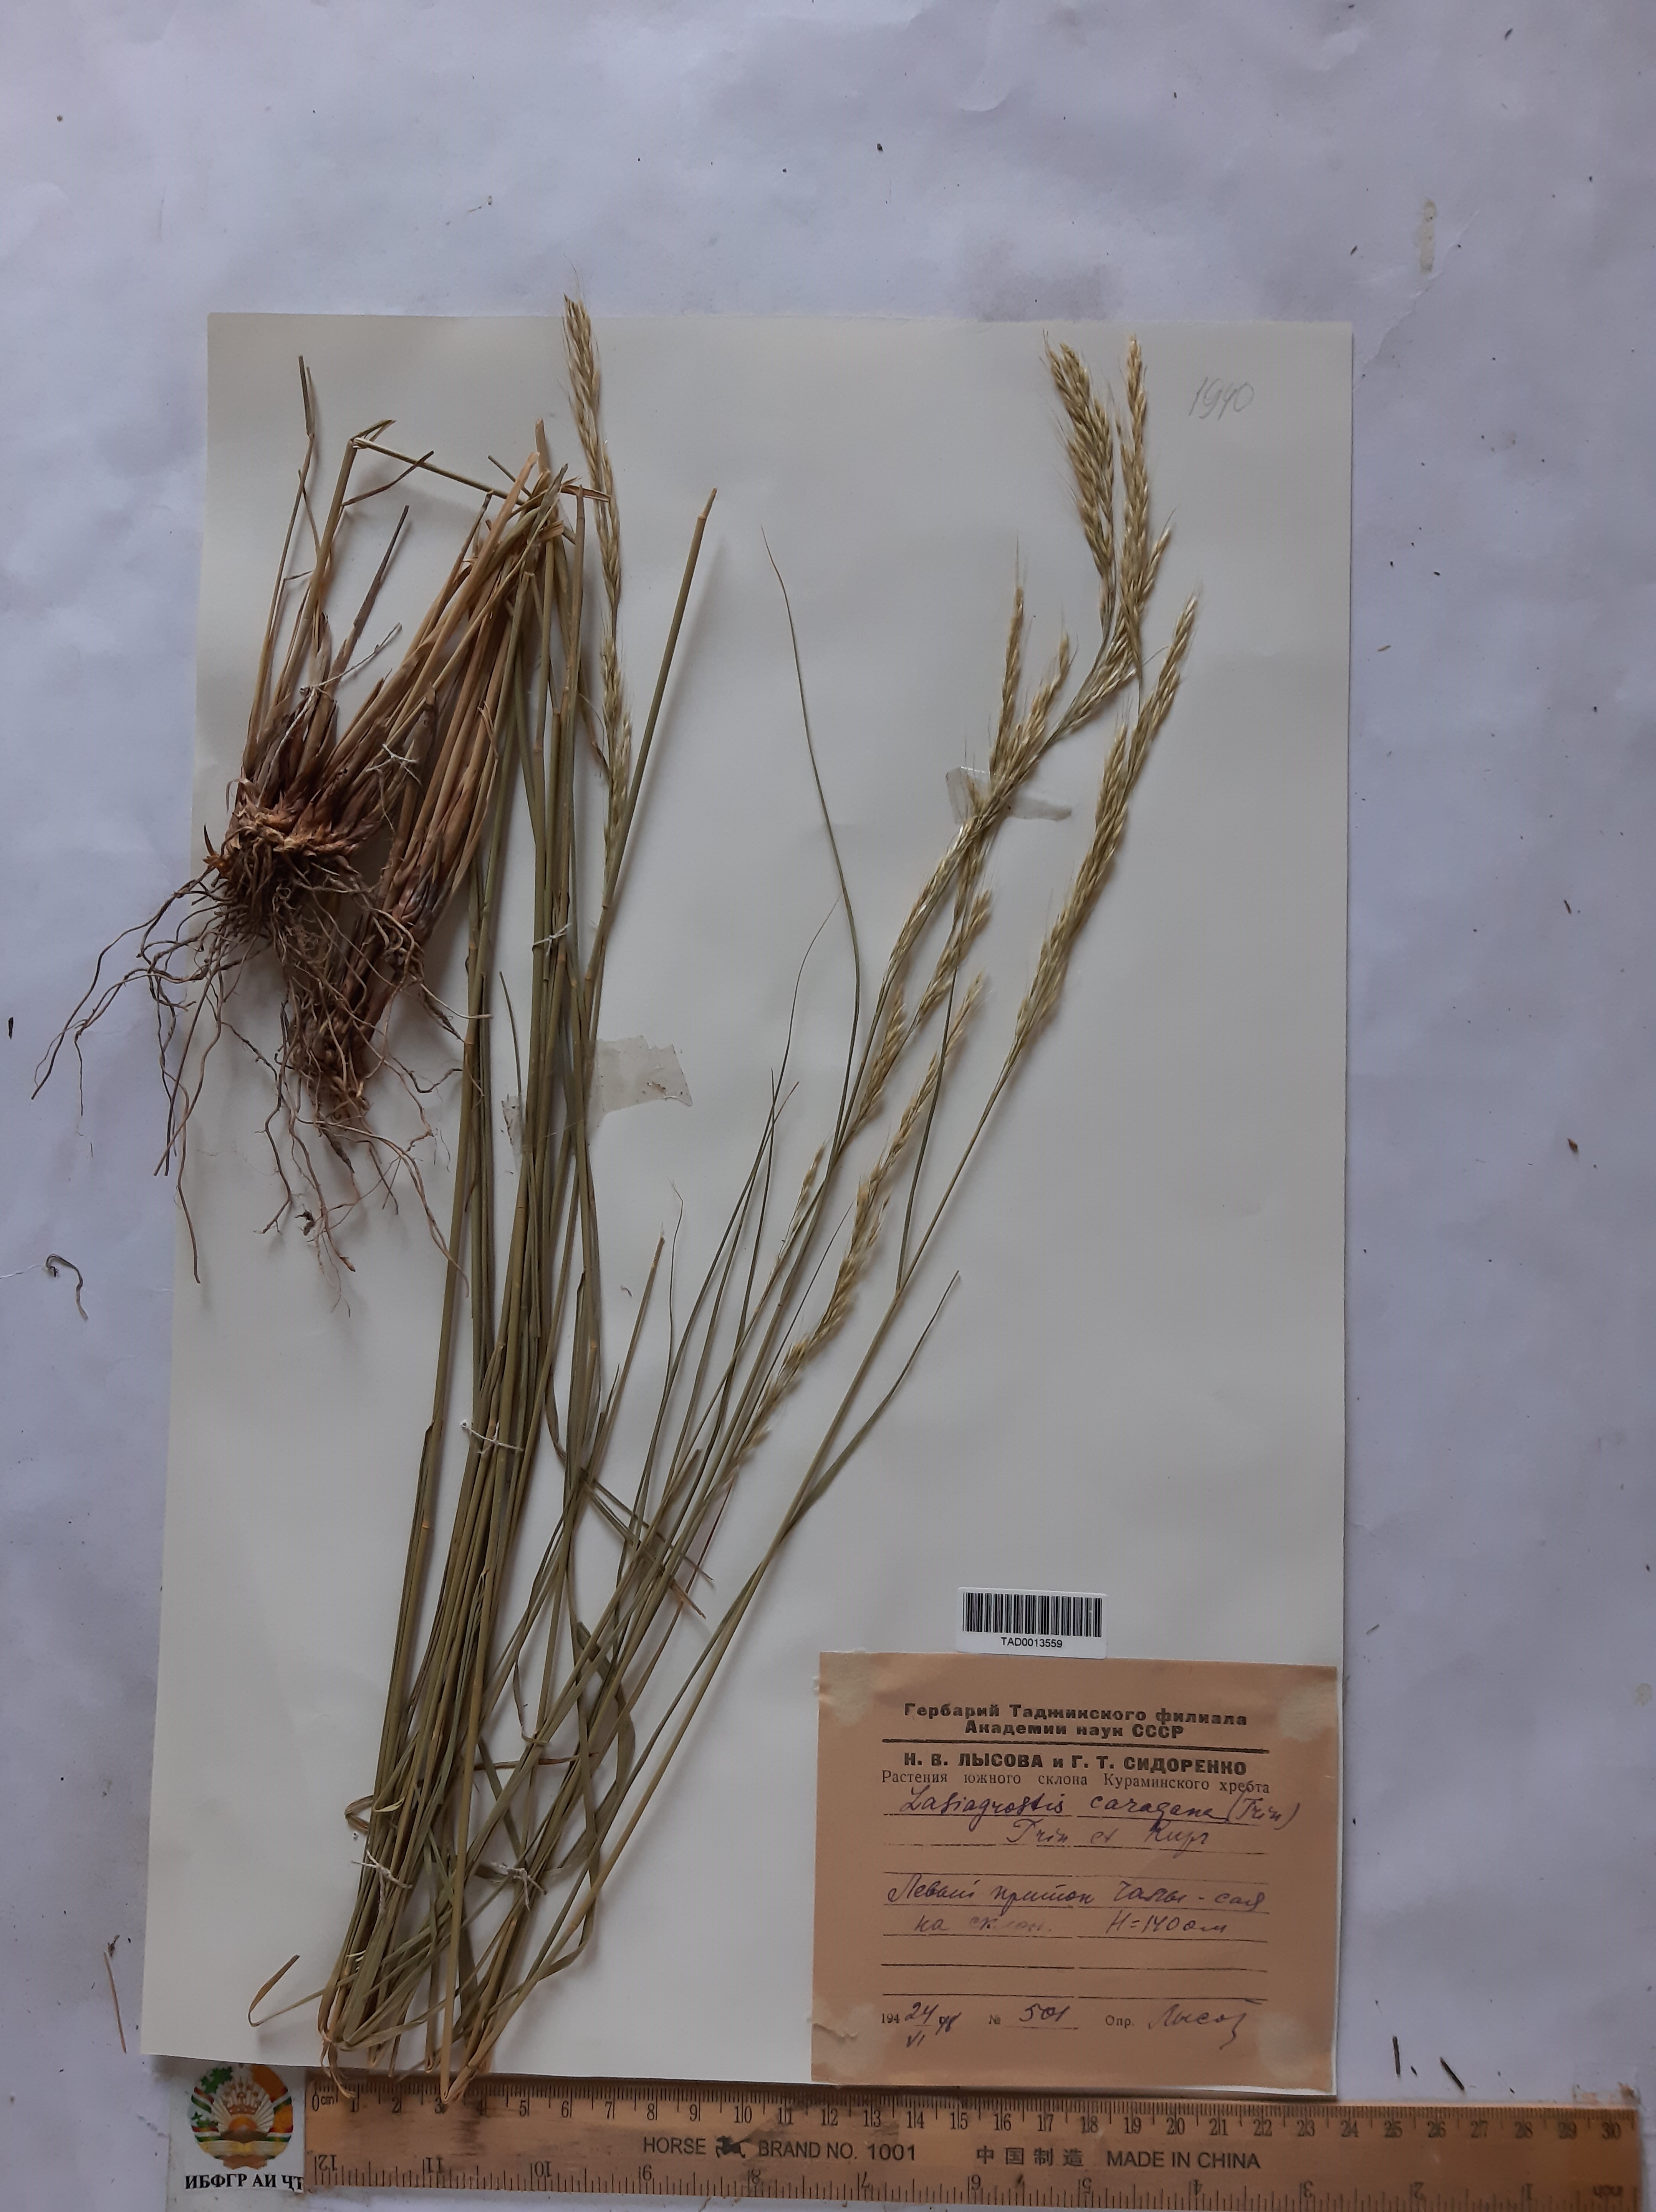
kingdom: Plantae
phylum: Tracheophyta
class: Liliopsida
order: Poales
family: Poaceae
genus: Stipa
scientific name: Stipa conferta
